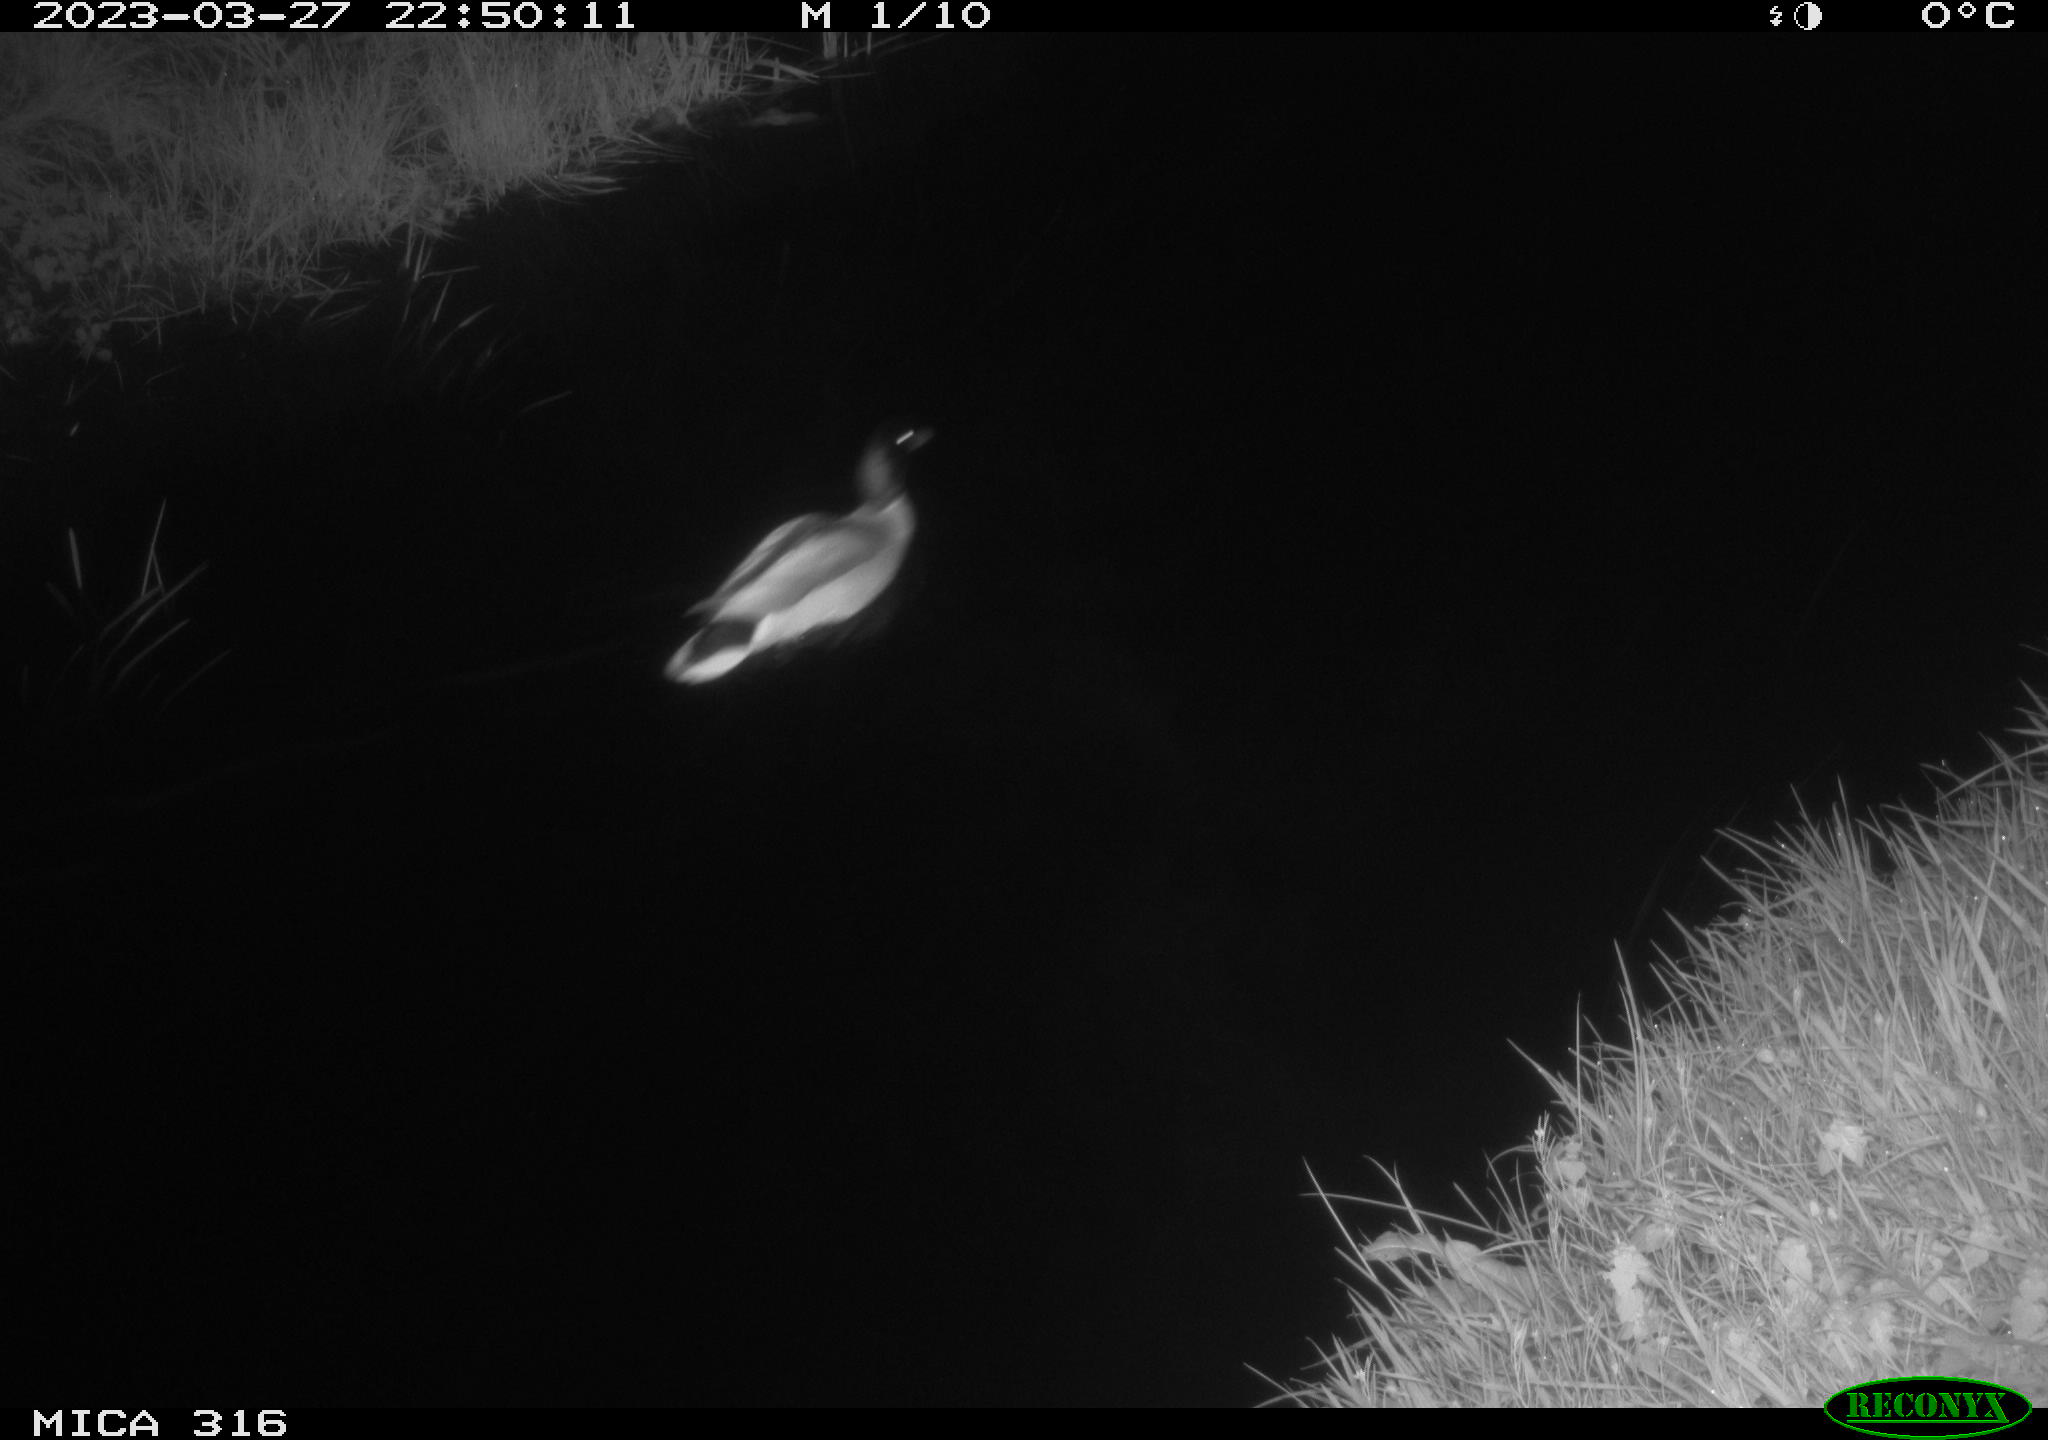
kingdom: Animalia
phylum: Chordata
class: Aves
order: Anseriformes
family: Anatidae
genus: Anas
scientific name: Anas
